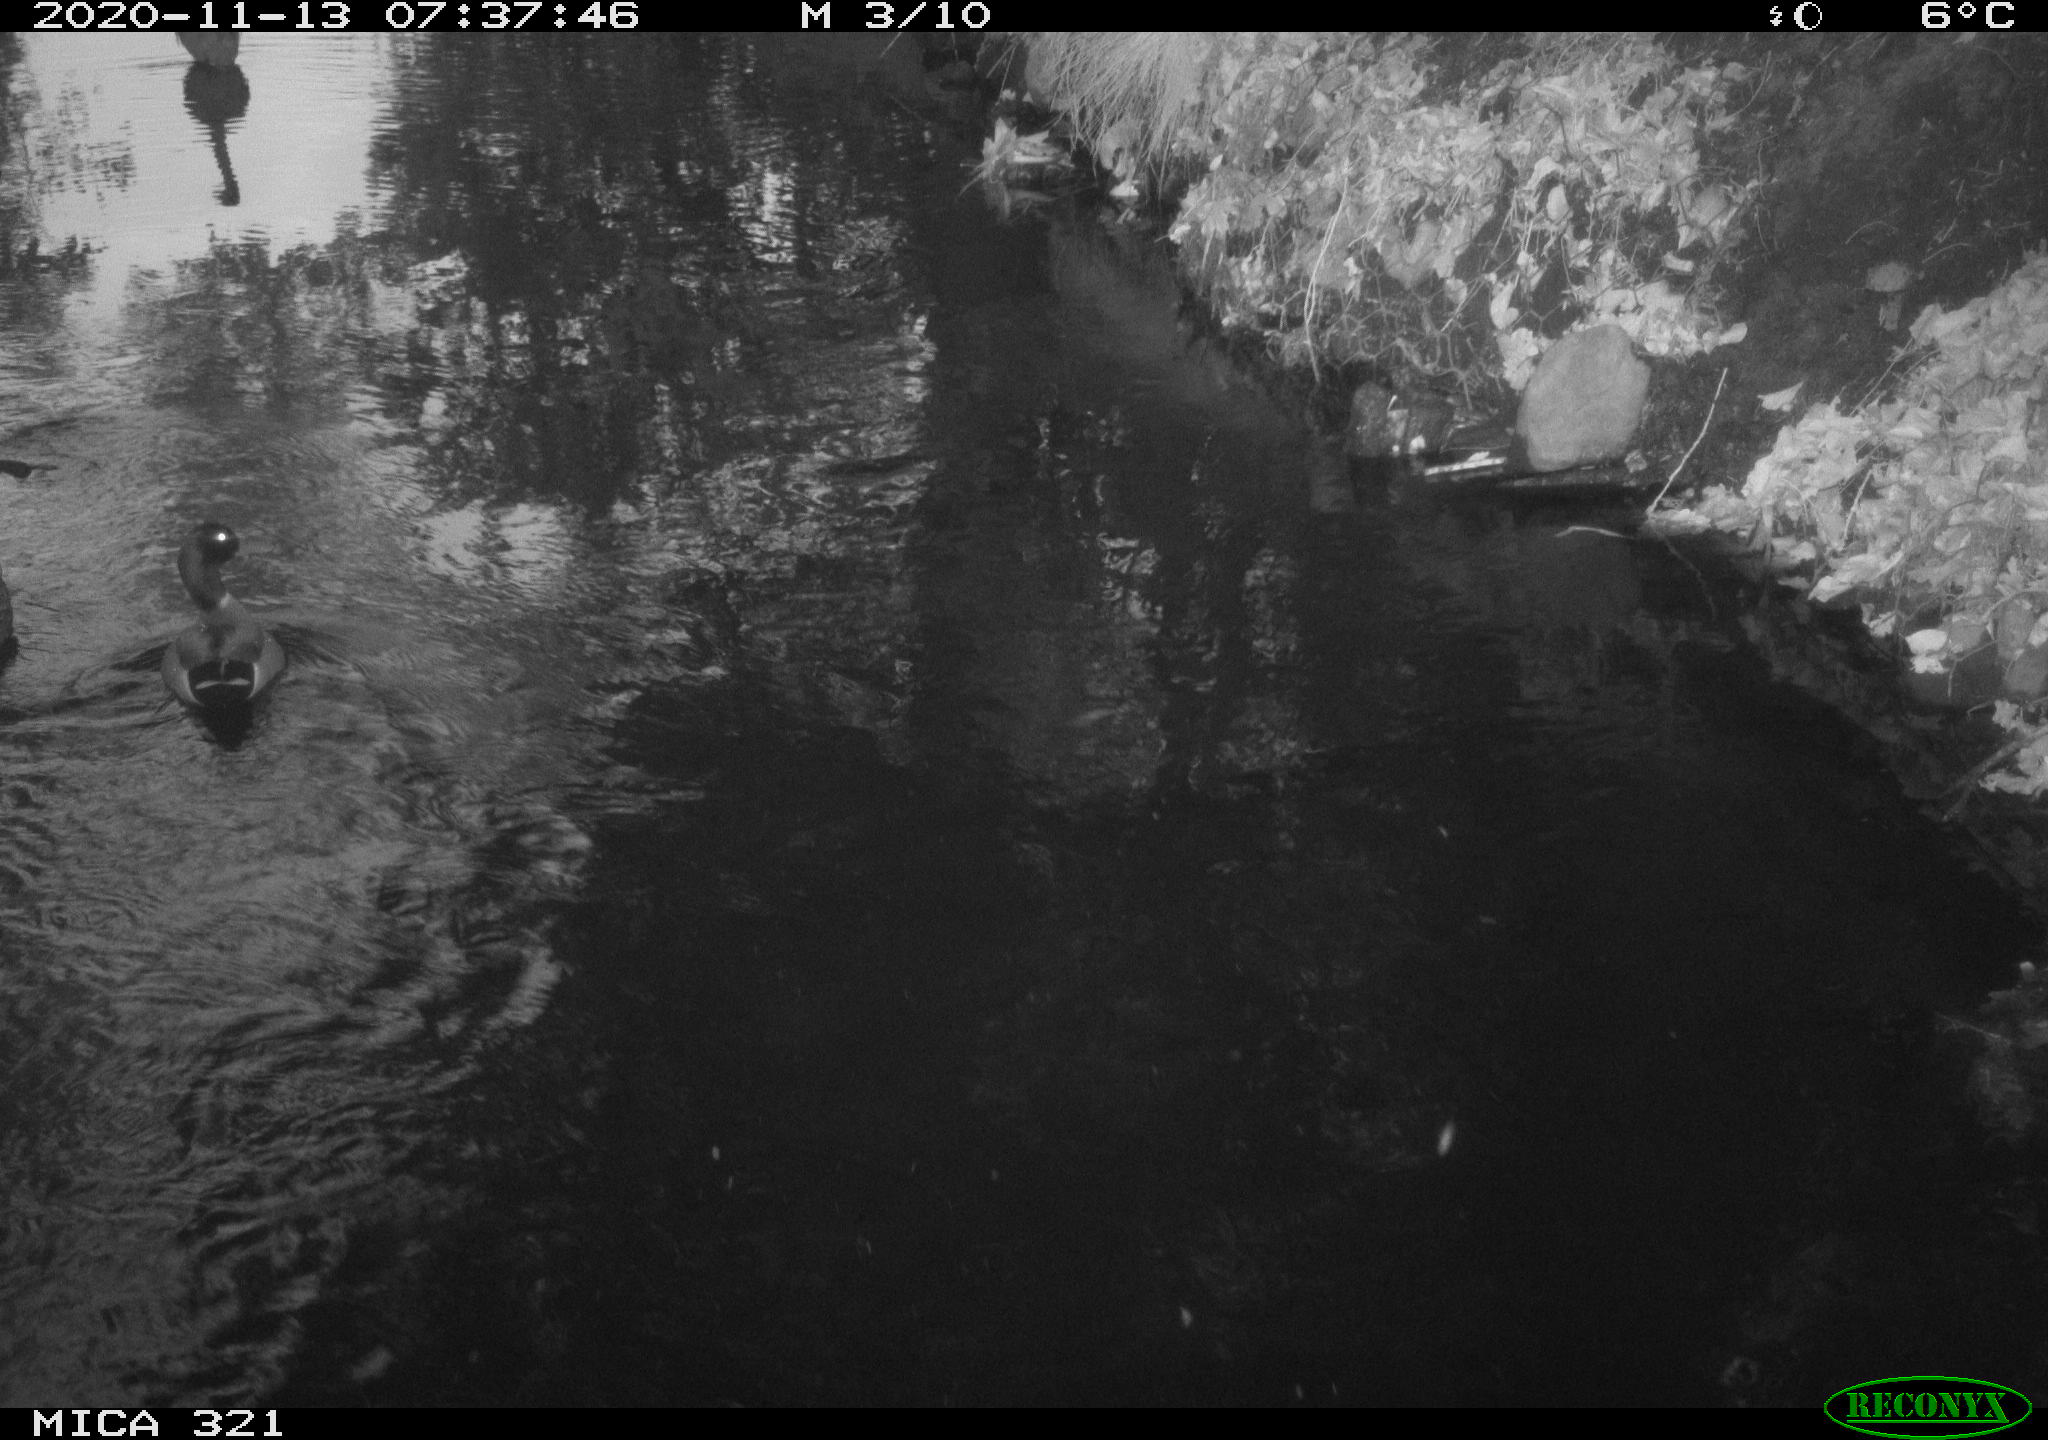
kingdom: Animalia
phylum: Chordata
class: Aves
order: Anseriformes
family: Anatidae
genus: Anas
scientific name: Anas platyrhynchos
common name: Mallard
